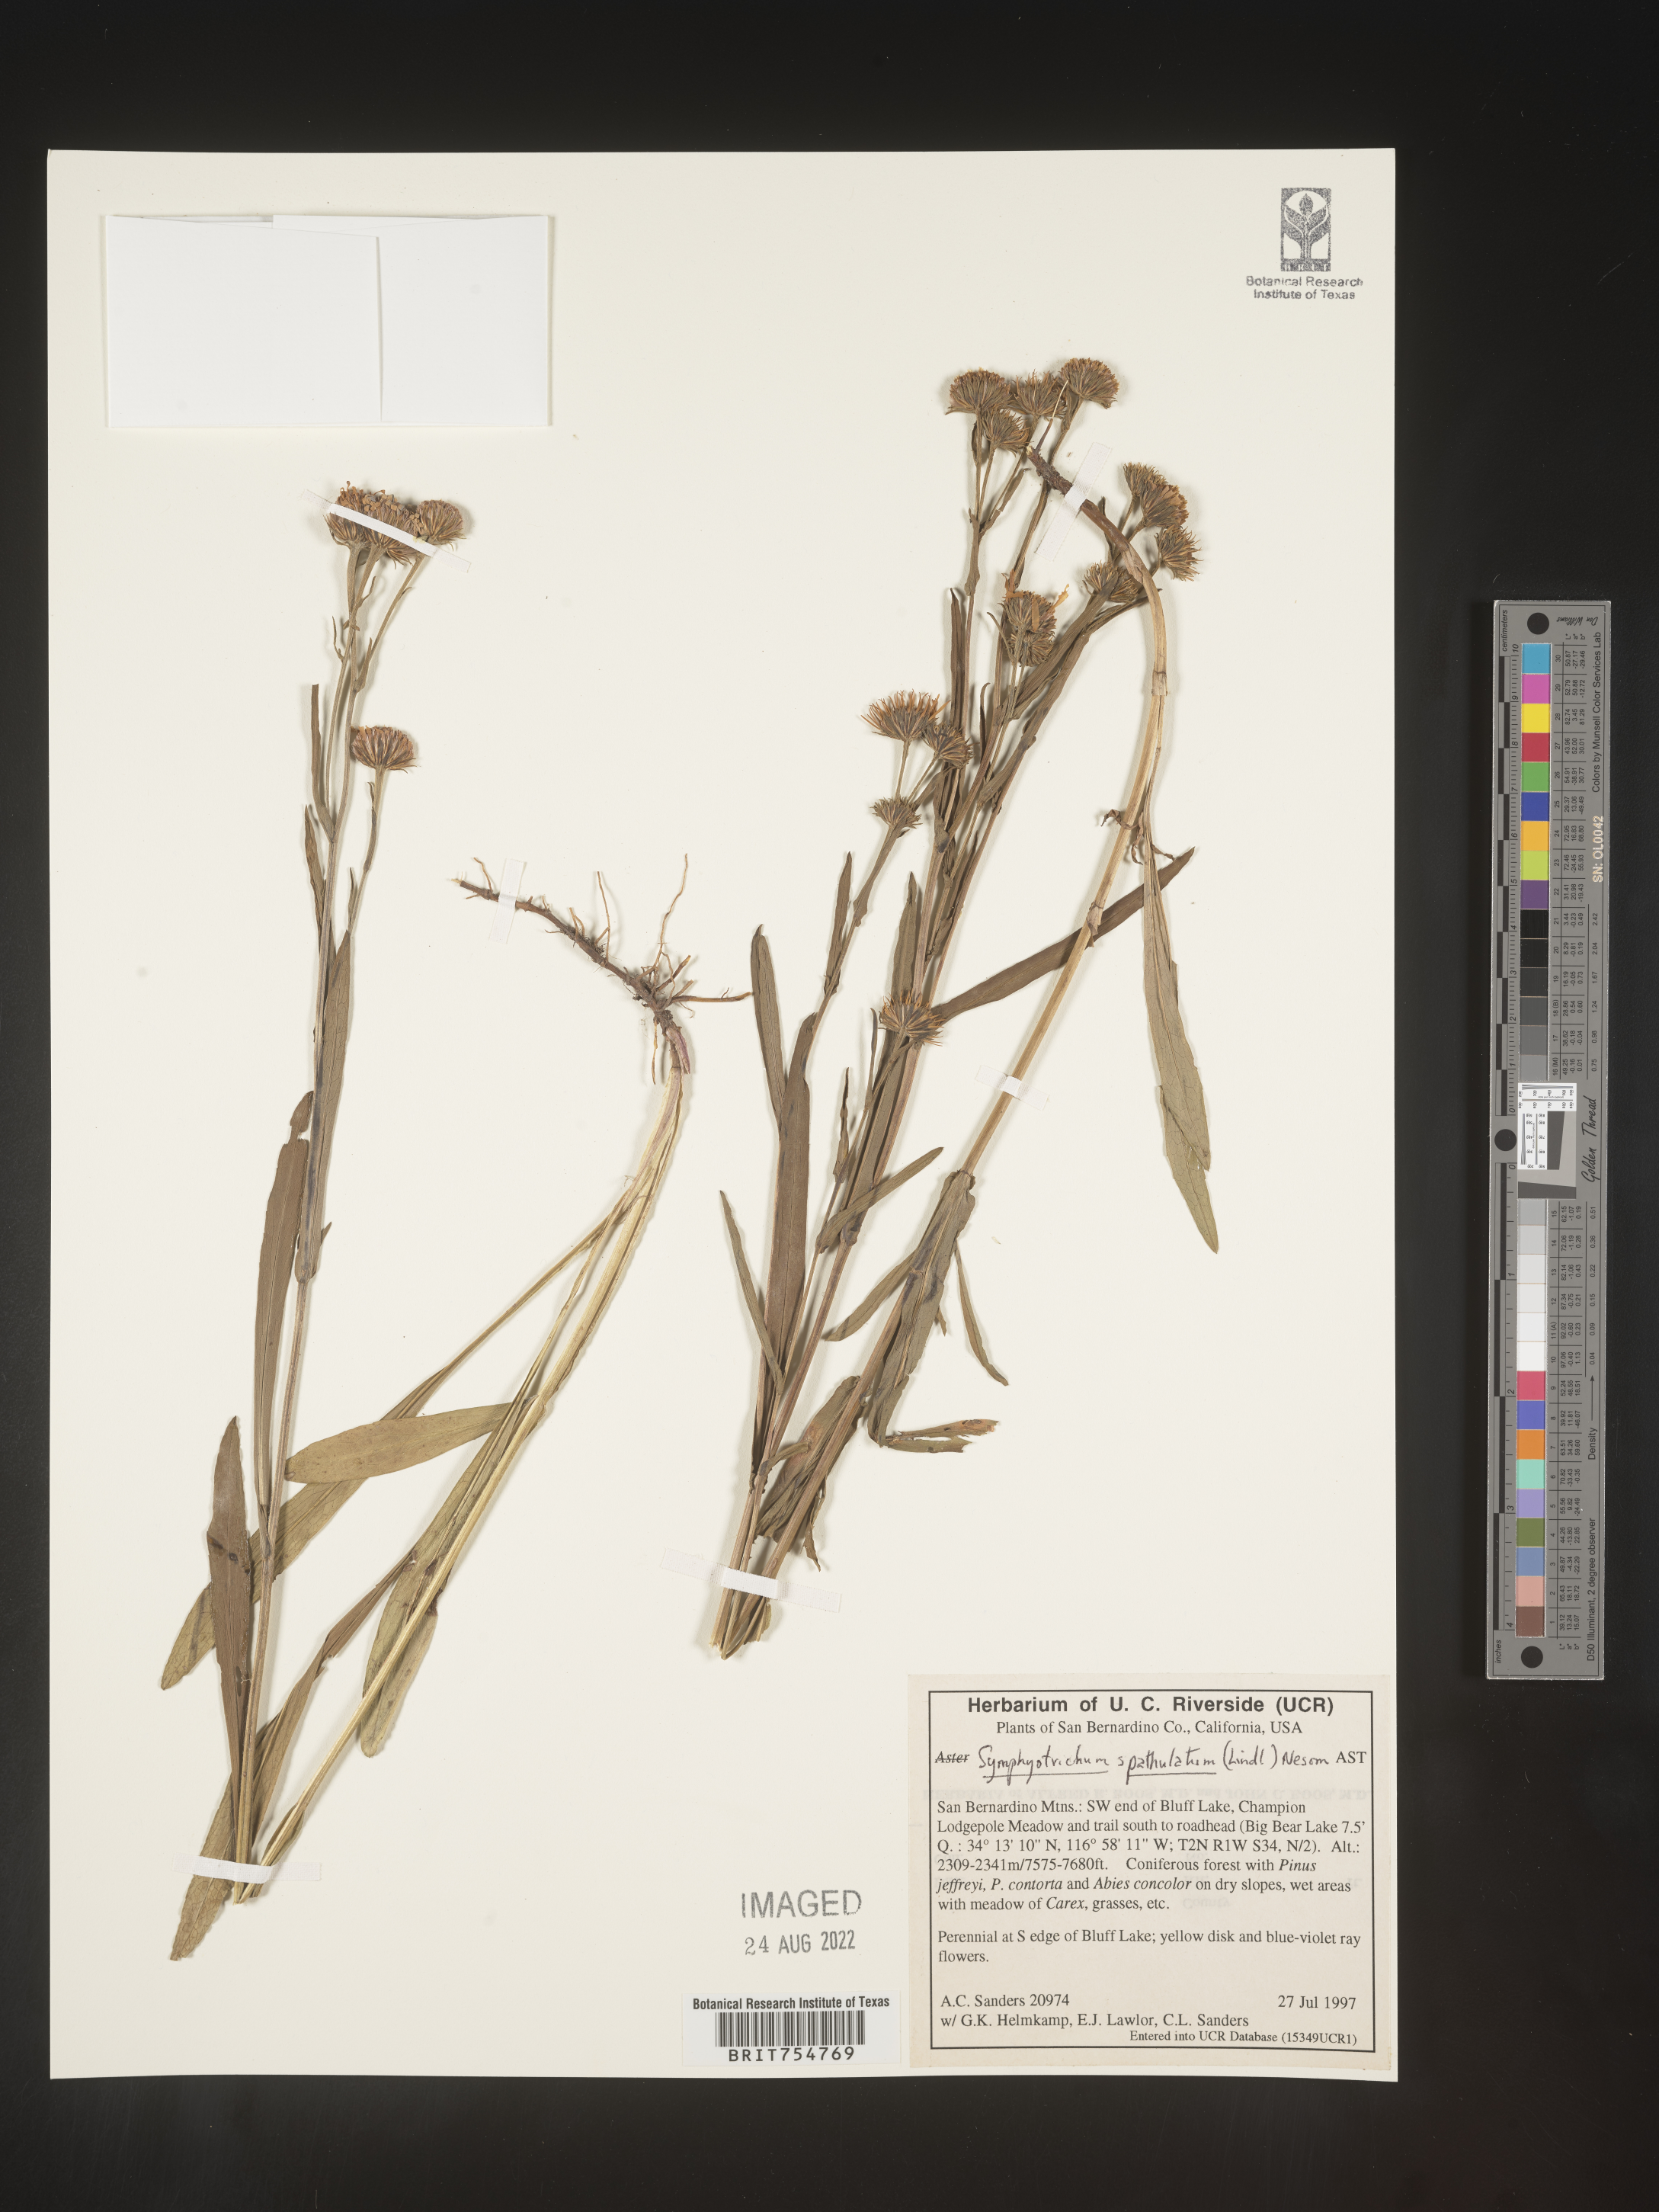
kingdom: Plantae
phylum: Tracheophyta
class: Magnoliopsida
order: Asterales
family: Asteraceae
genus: Symphyotrichum
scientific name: Symphyotrichum
